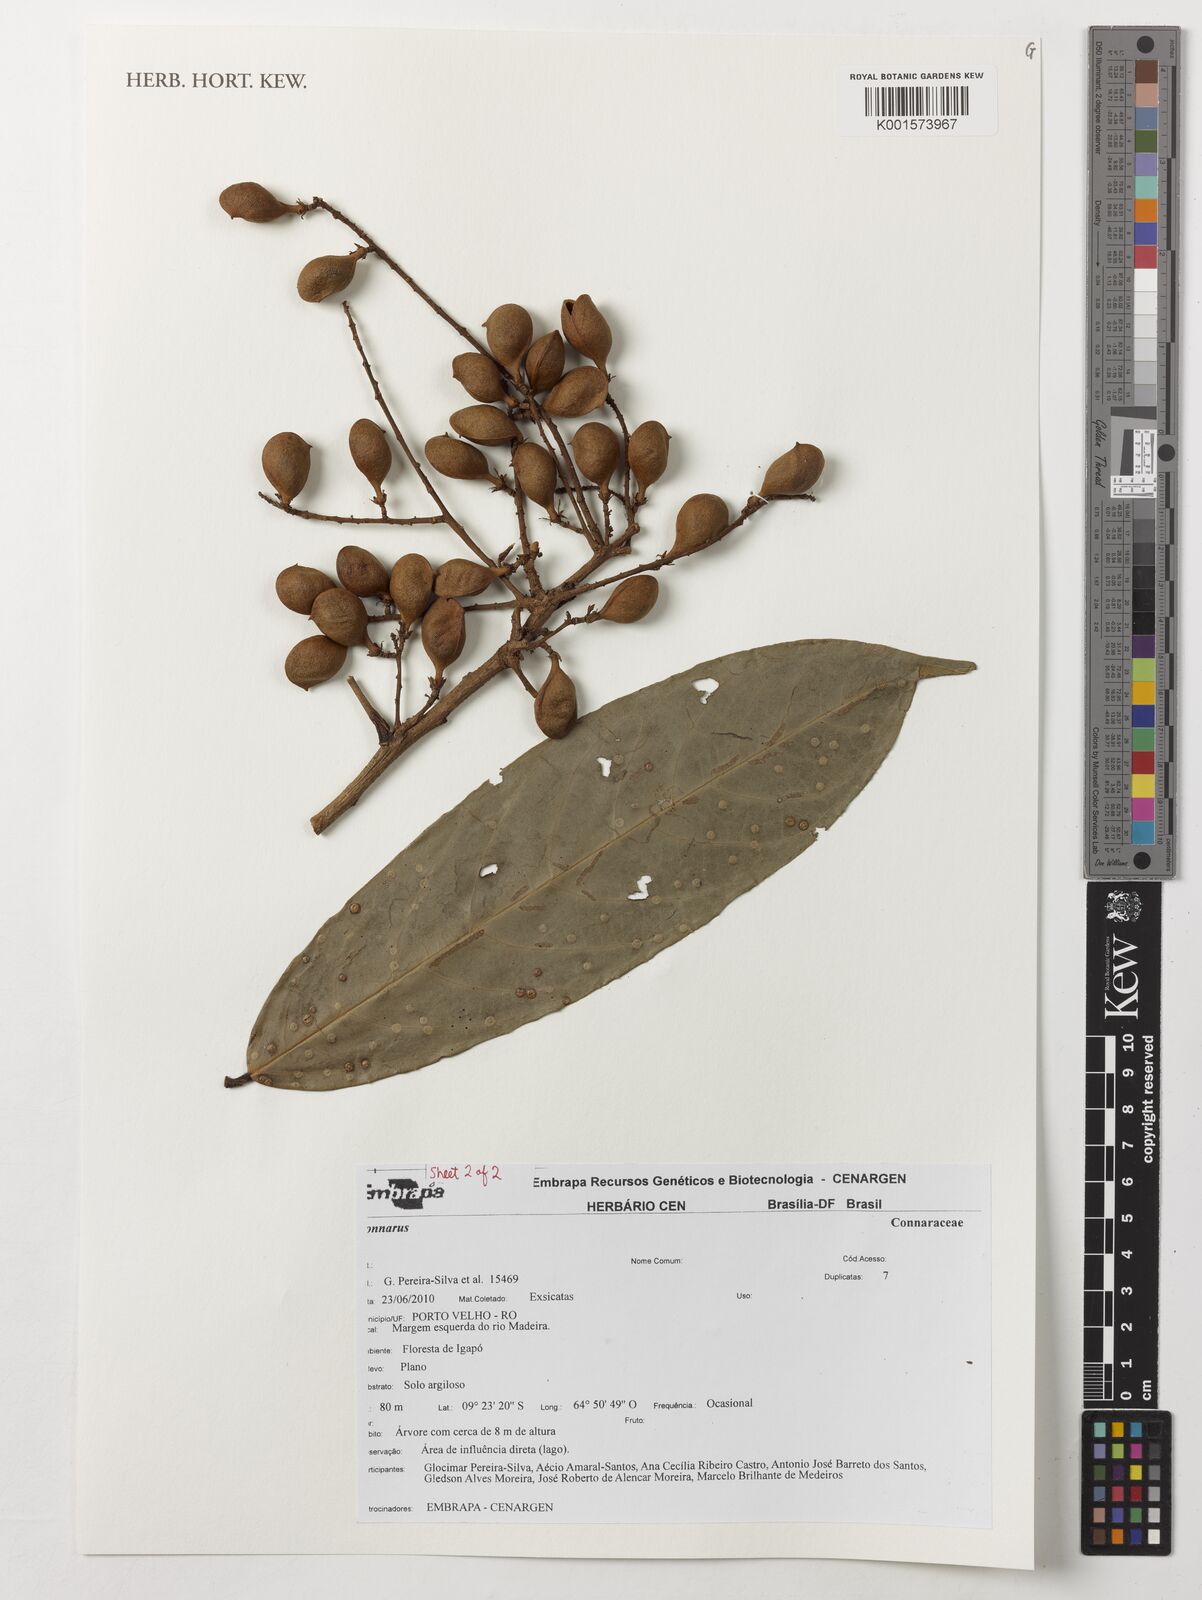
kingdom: Plantae
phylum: Tracheophyta
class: Magnoliopsida
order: Oxalidales
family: Connaraceae
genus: Connarus
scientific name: Connarus
